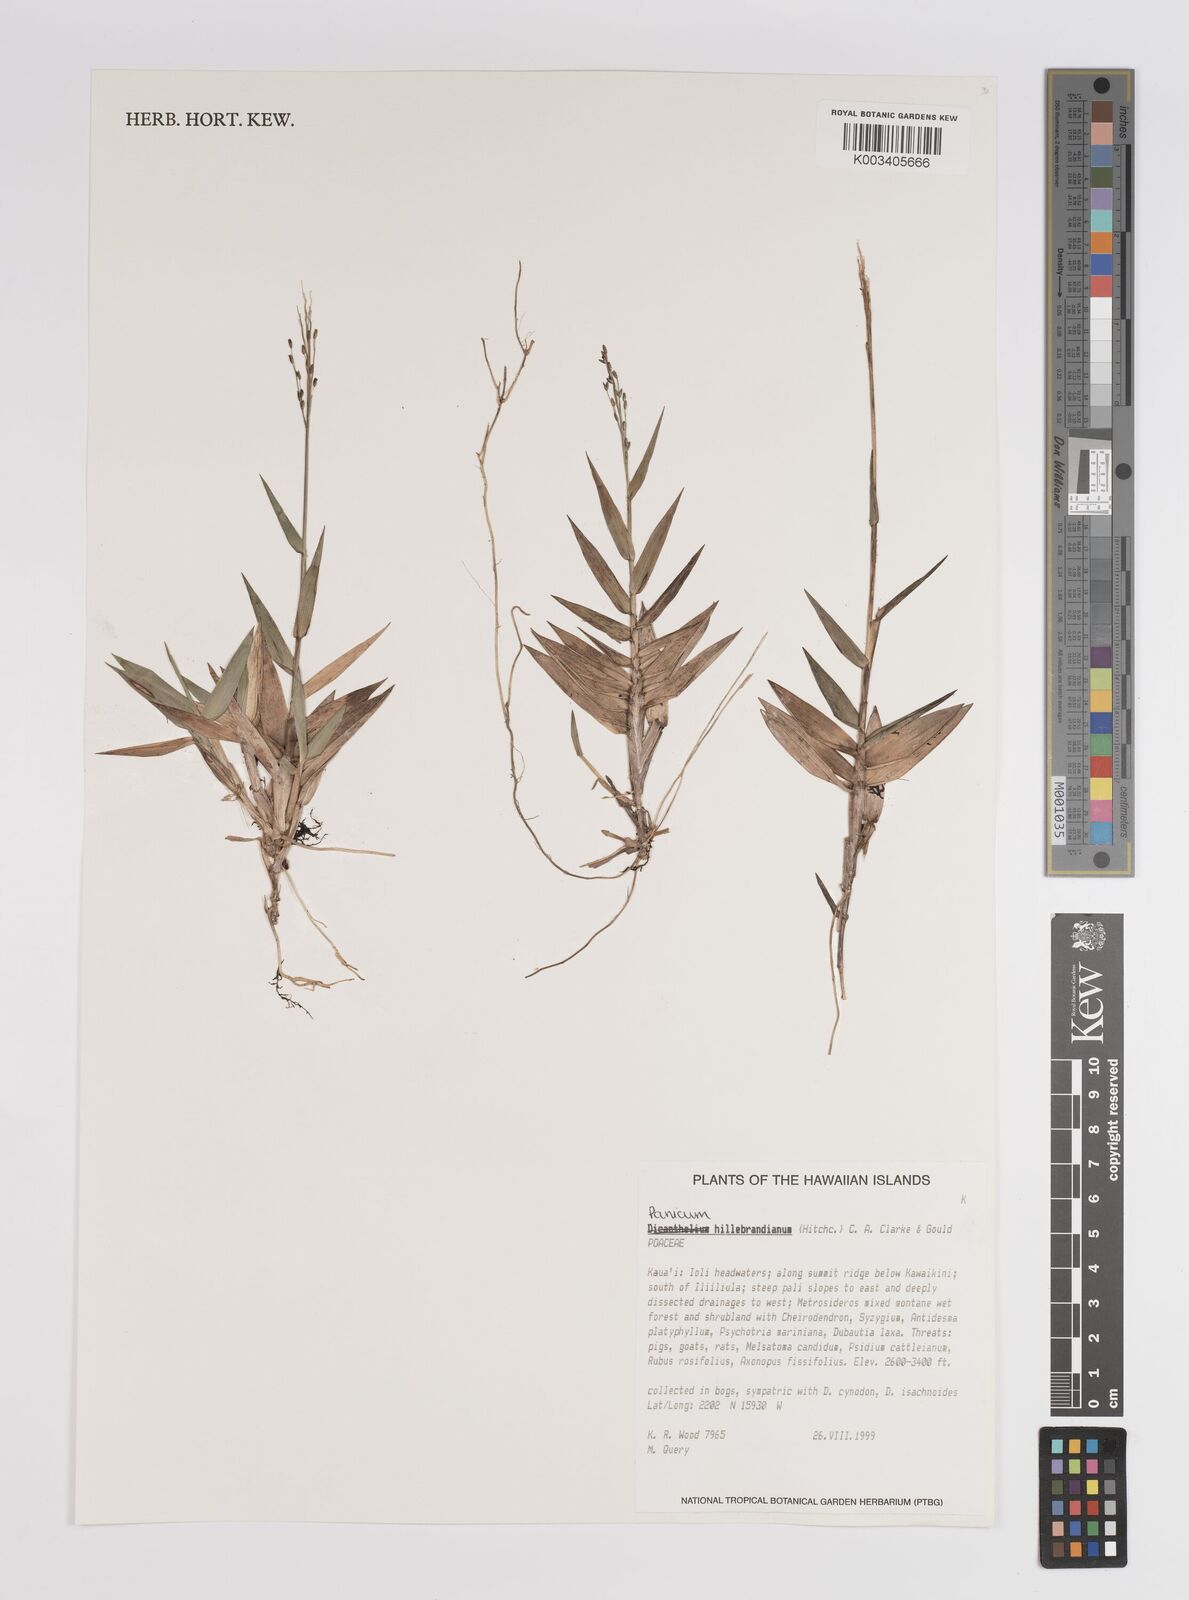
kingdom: Plantae
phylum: Tracheophyta
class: Liliopsida
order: Poales
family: Poaceae
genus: Dichanthelium
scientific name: Dichanthelium hillebrandianum
